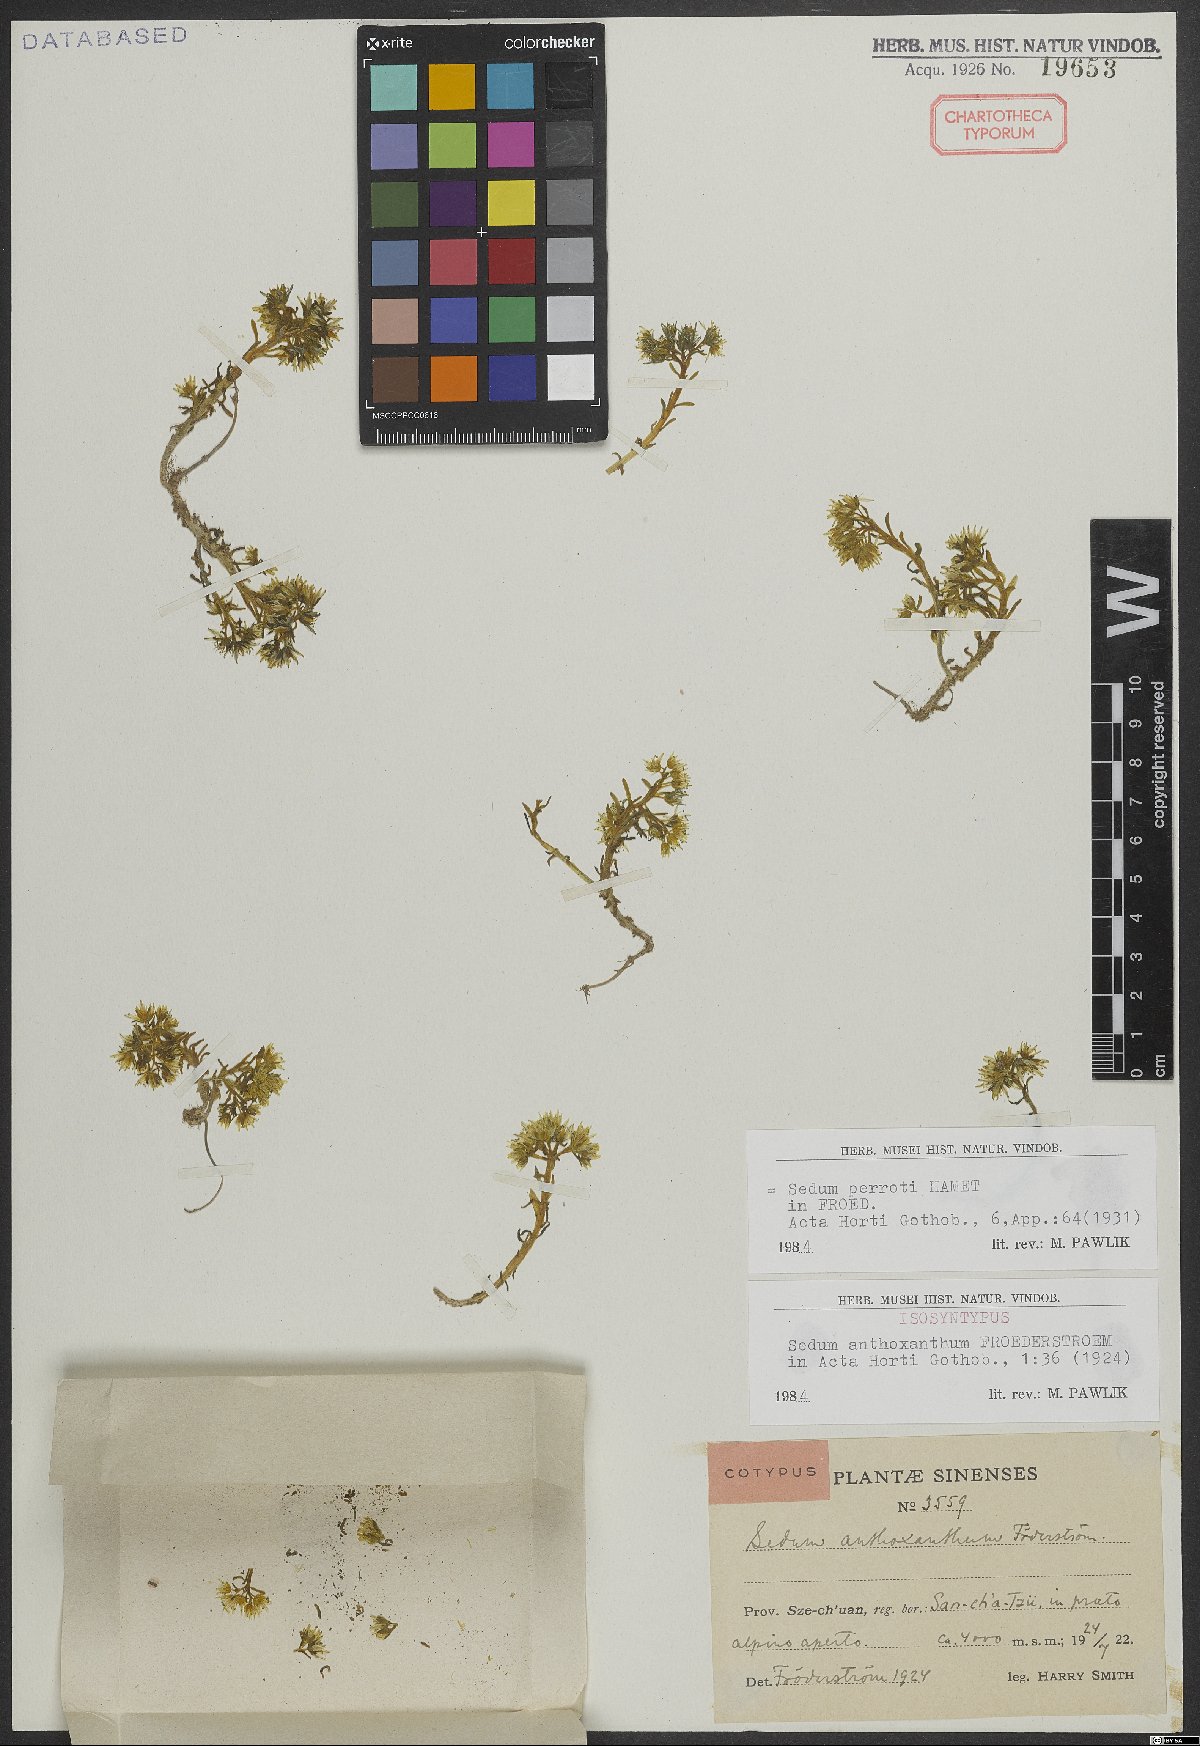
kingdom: Plantae
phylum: Tracheophyta
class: Magnoliopsida
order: Saxifragales
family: Crassulaceae
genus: Sedum
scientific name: Sedum perrotii
